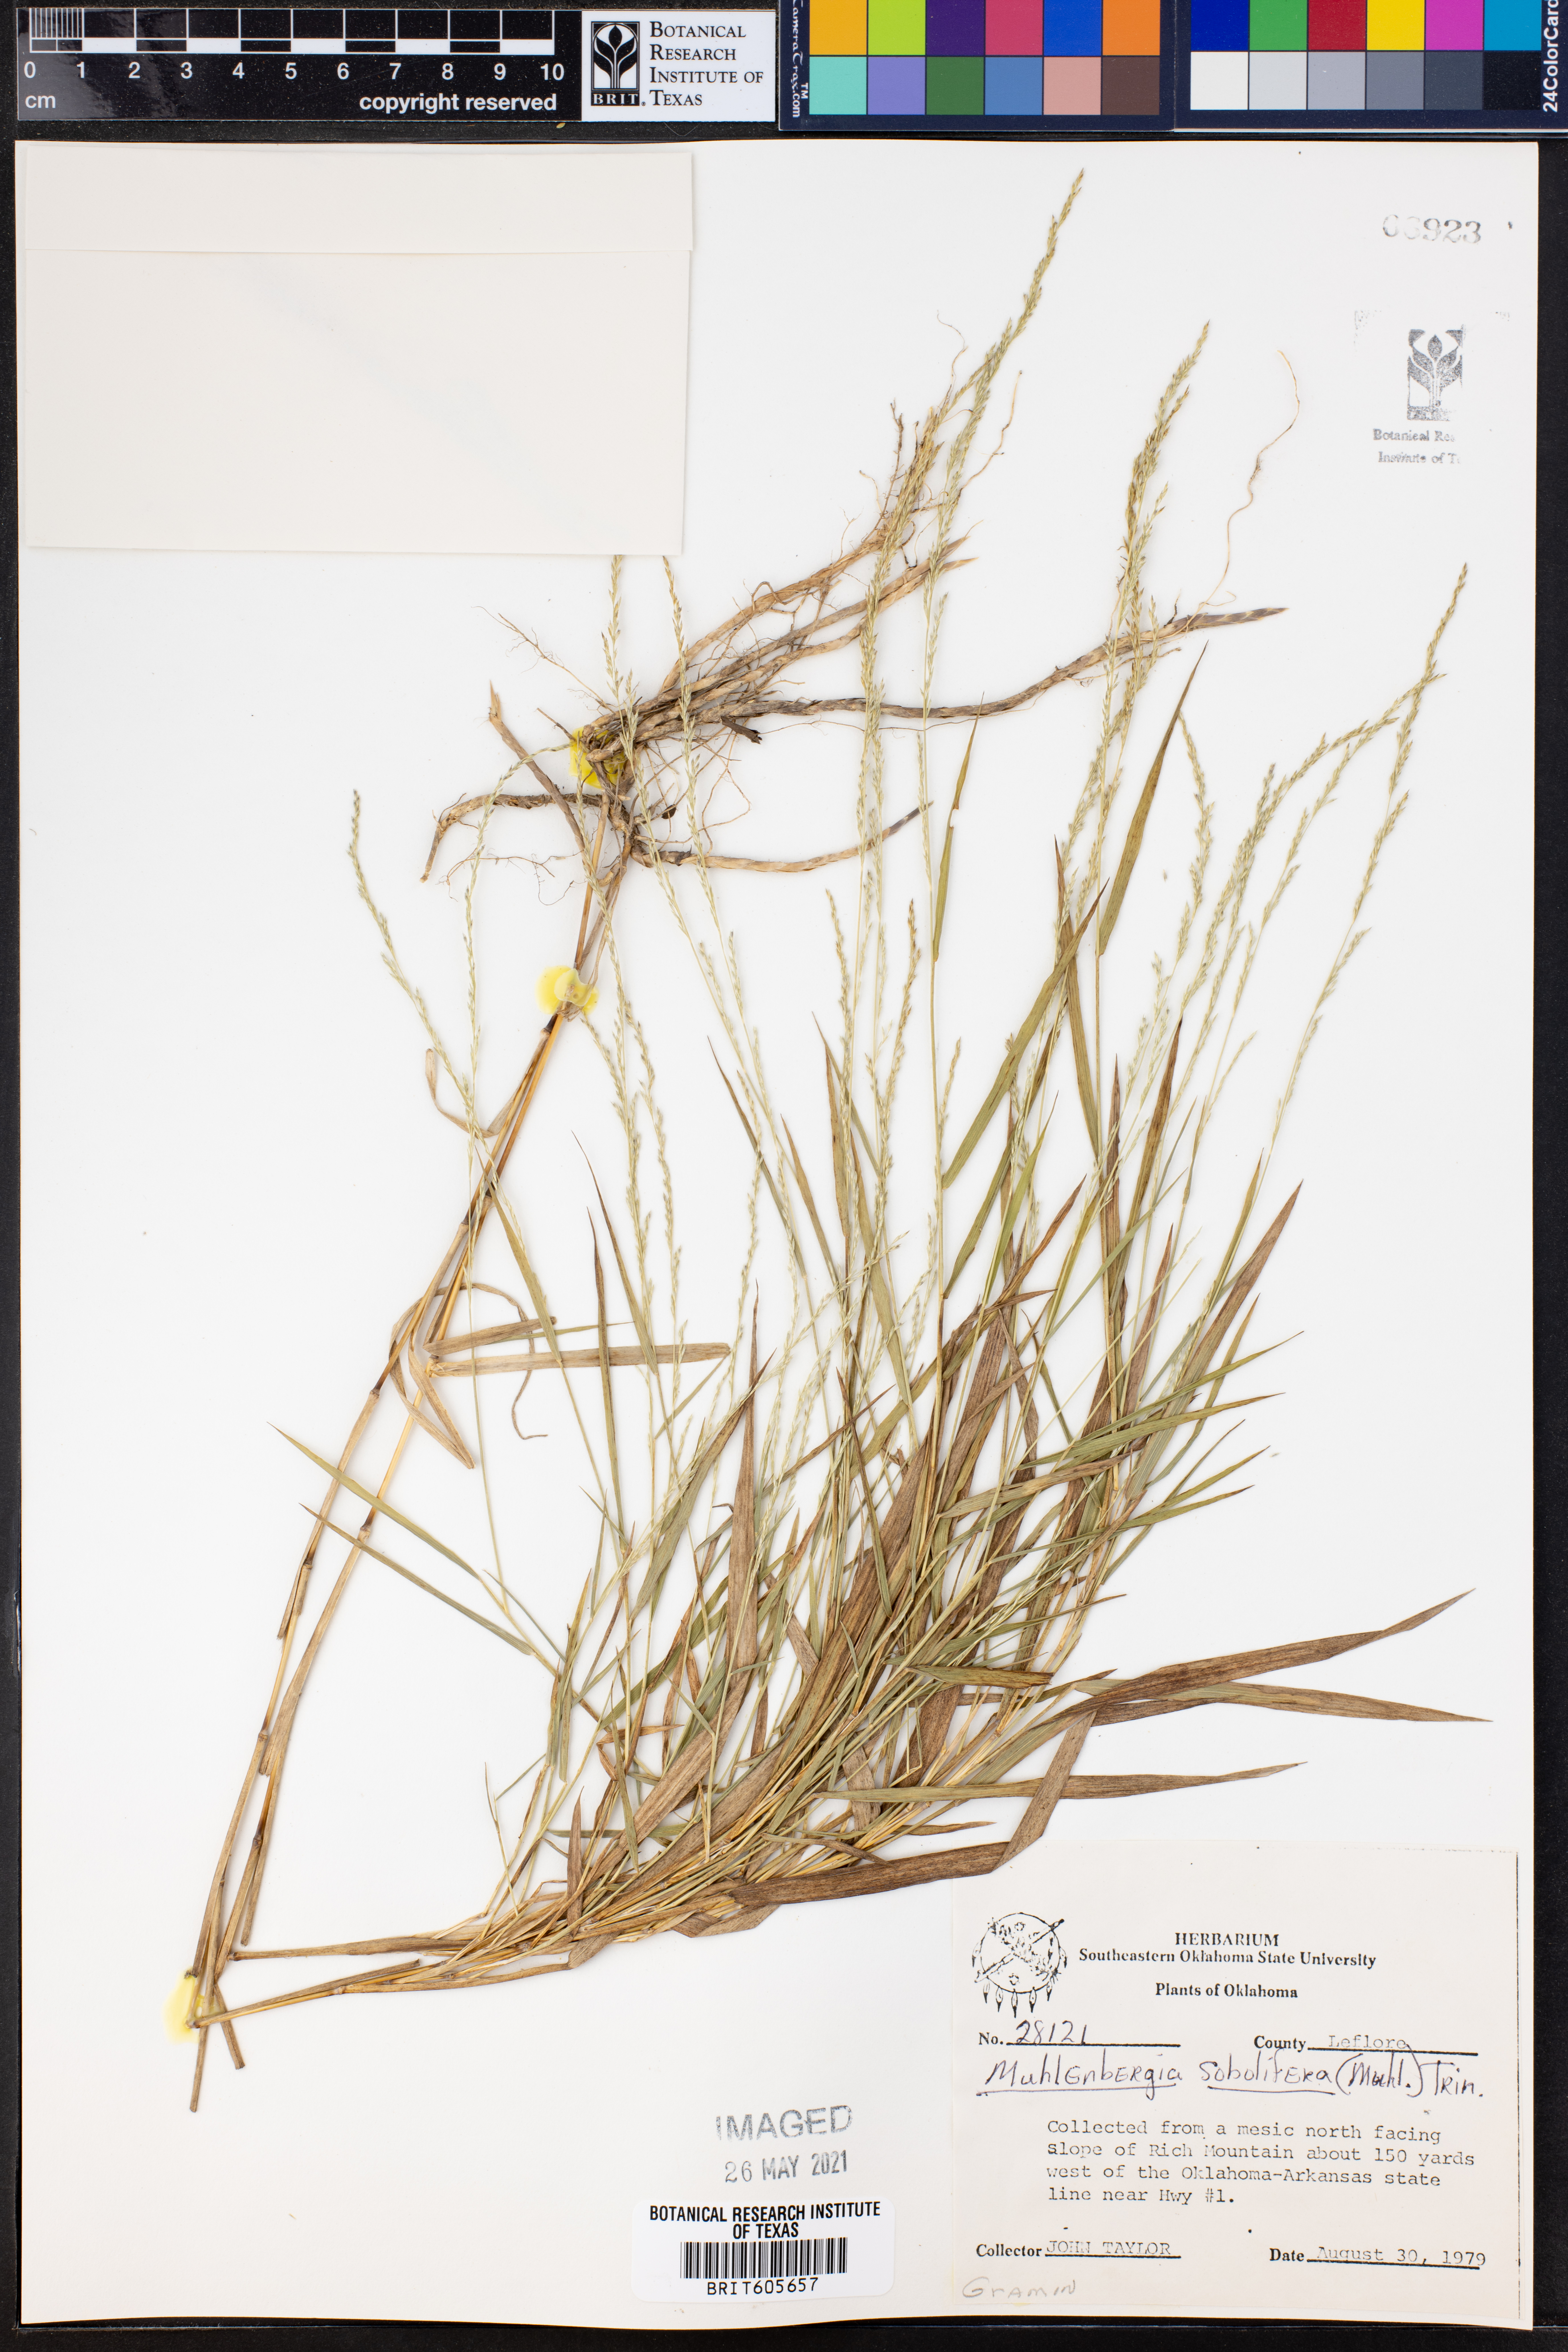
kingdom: Plantae
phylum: Tracheophyta
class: Liliopsida
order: Poales
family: Poaceae
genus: Muhlenbergia
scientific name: Muhlenbergia sobolifera
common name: Creeping muhly
